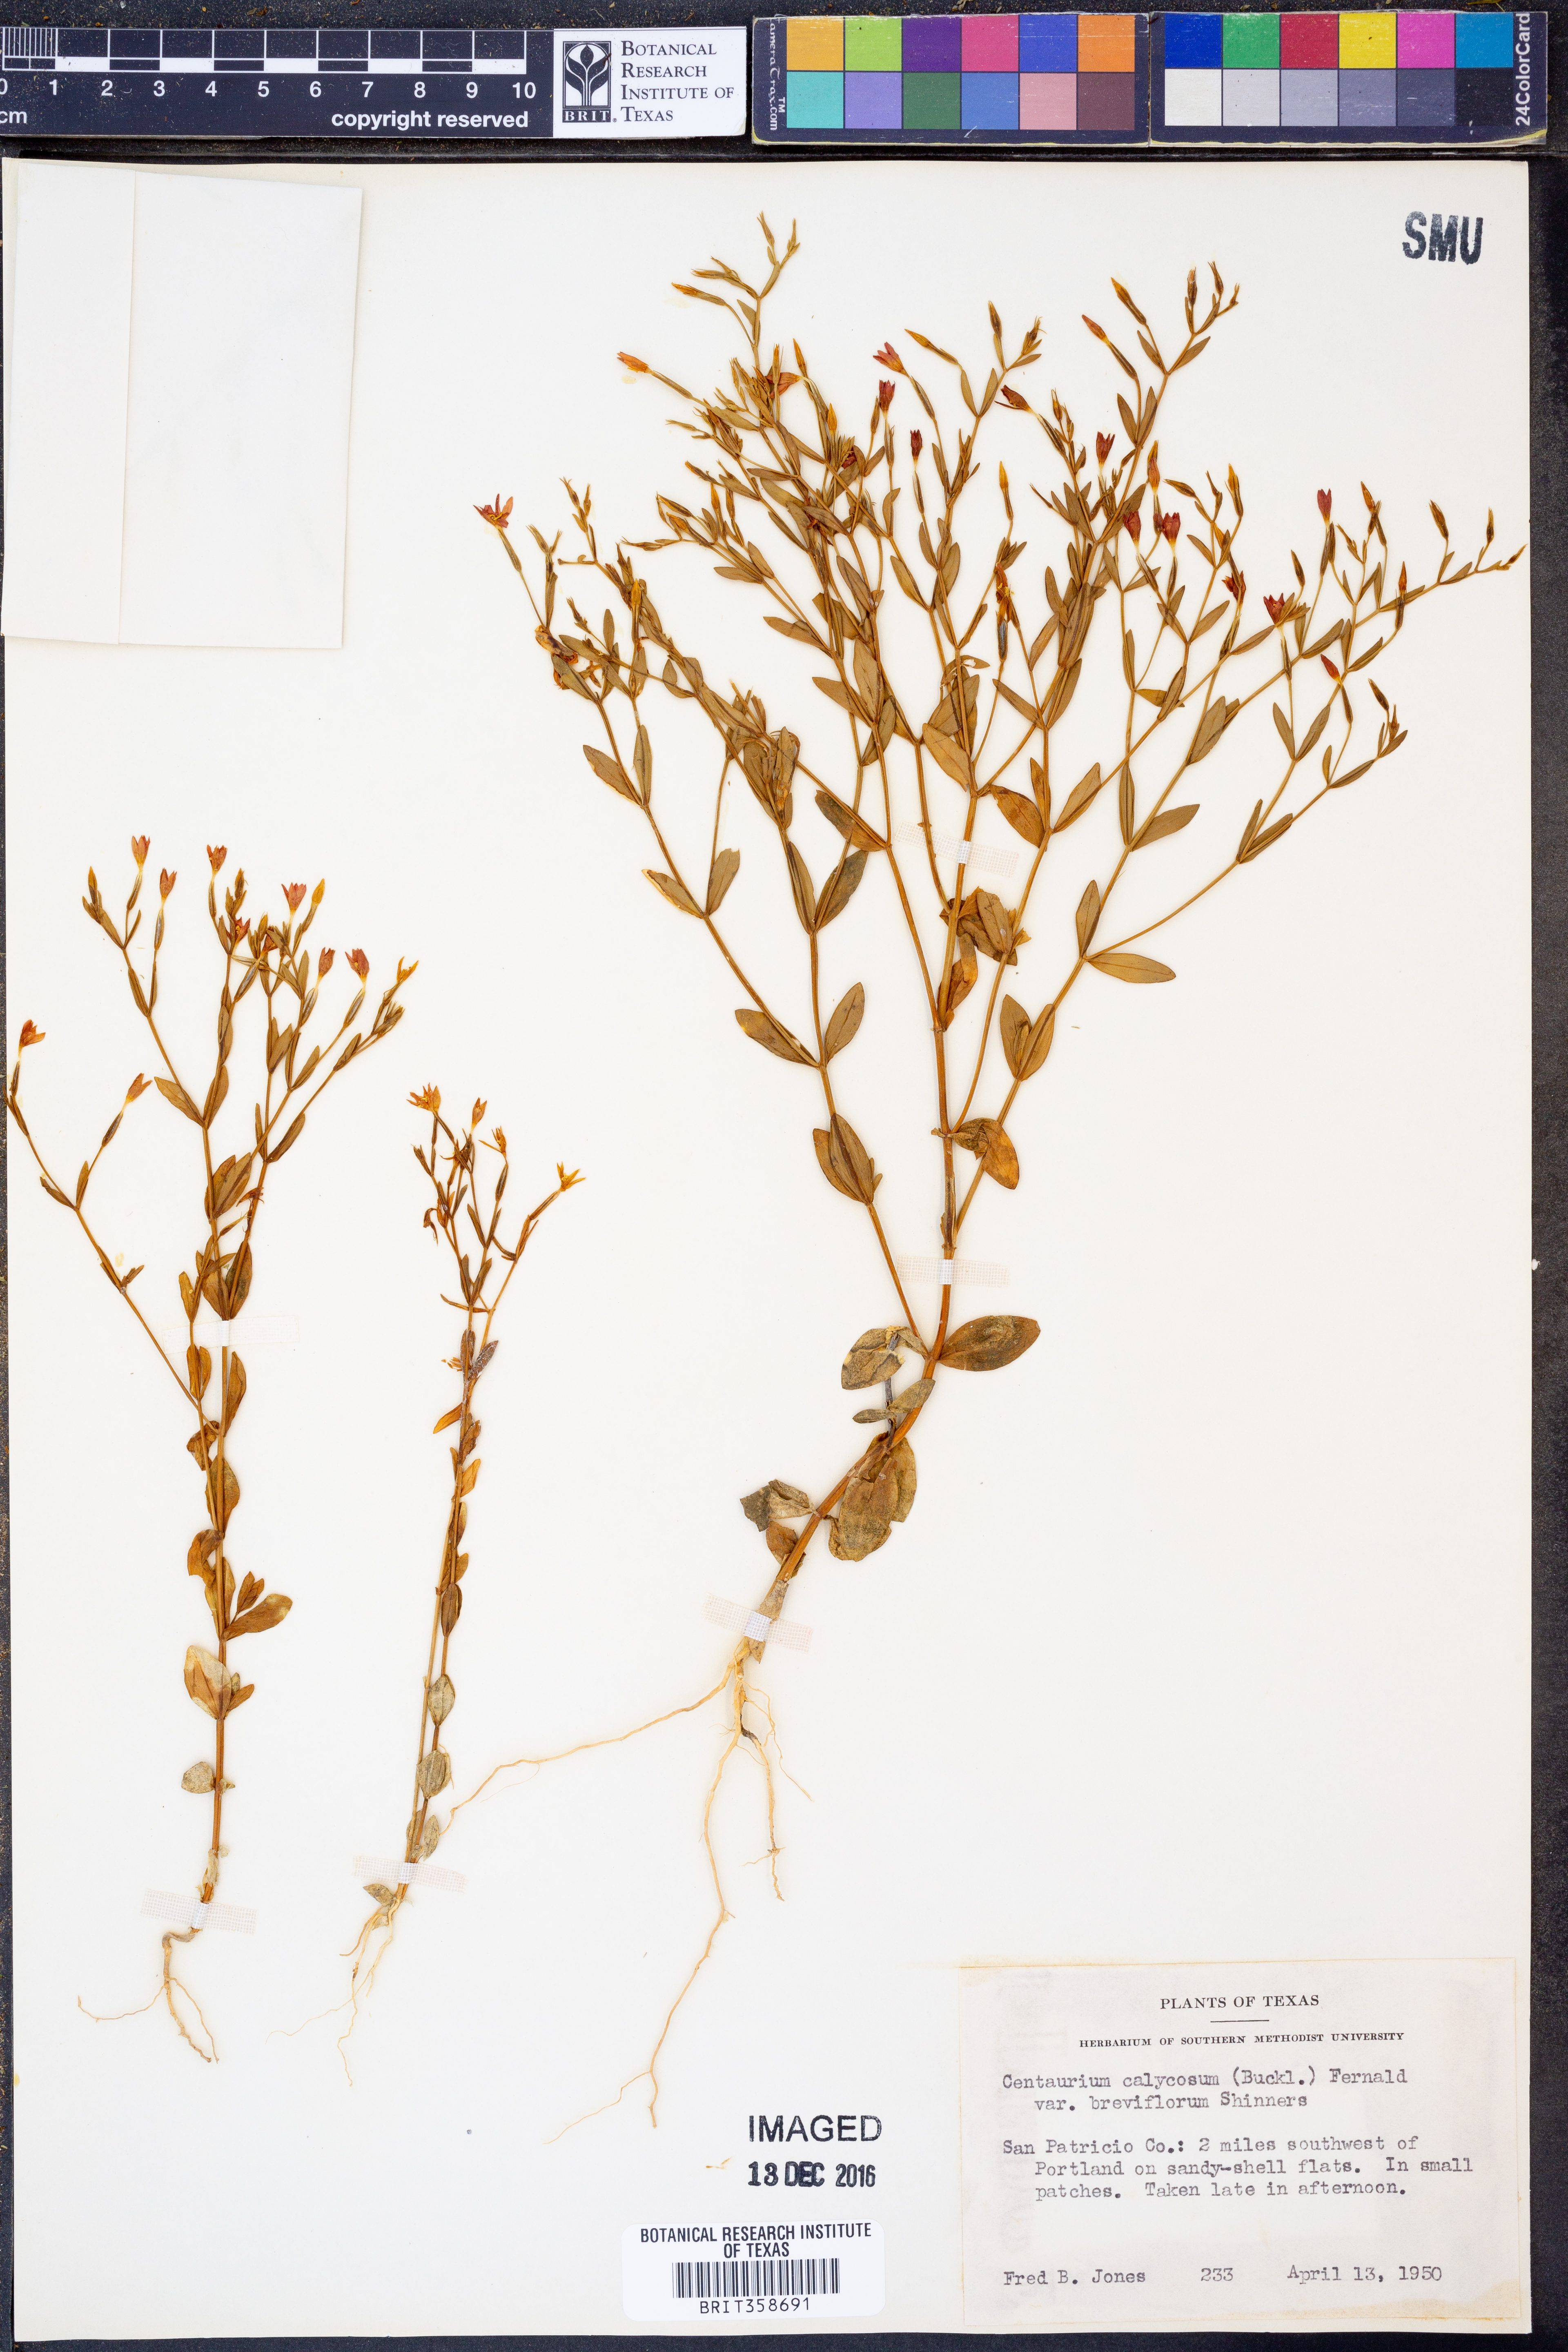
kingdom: Plantae
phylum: Tracheophyta
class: Magnoliopsida
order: Gentianales
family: Gentianaceae
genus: Zeltnera
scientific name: Zeltnera breviflora
